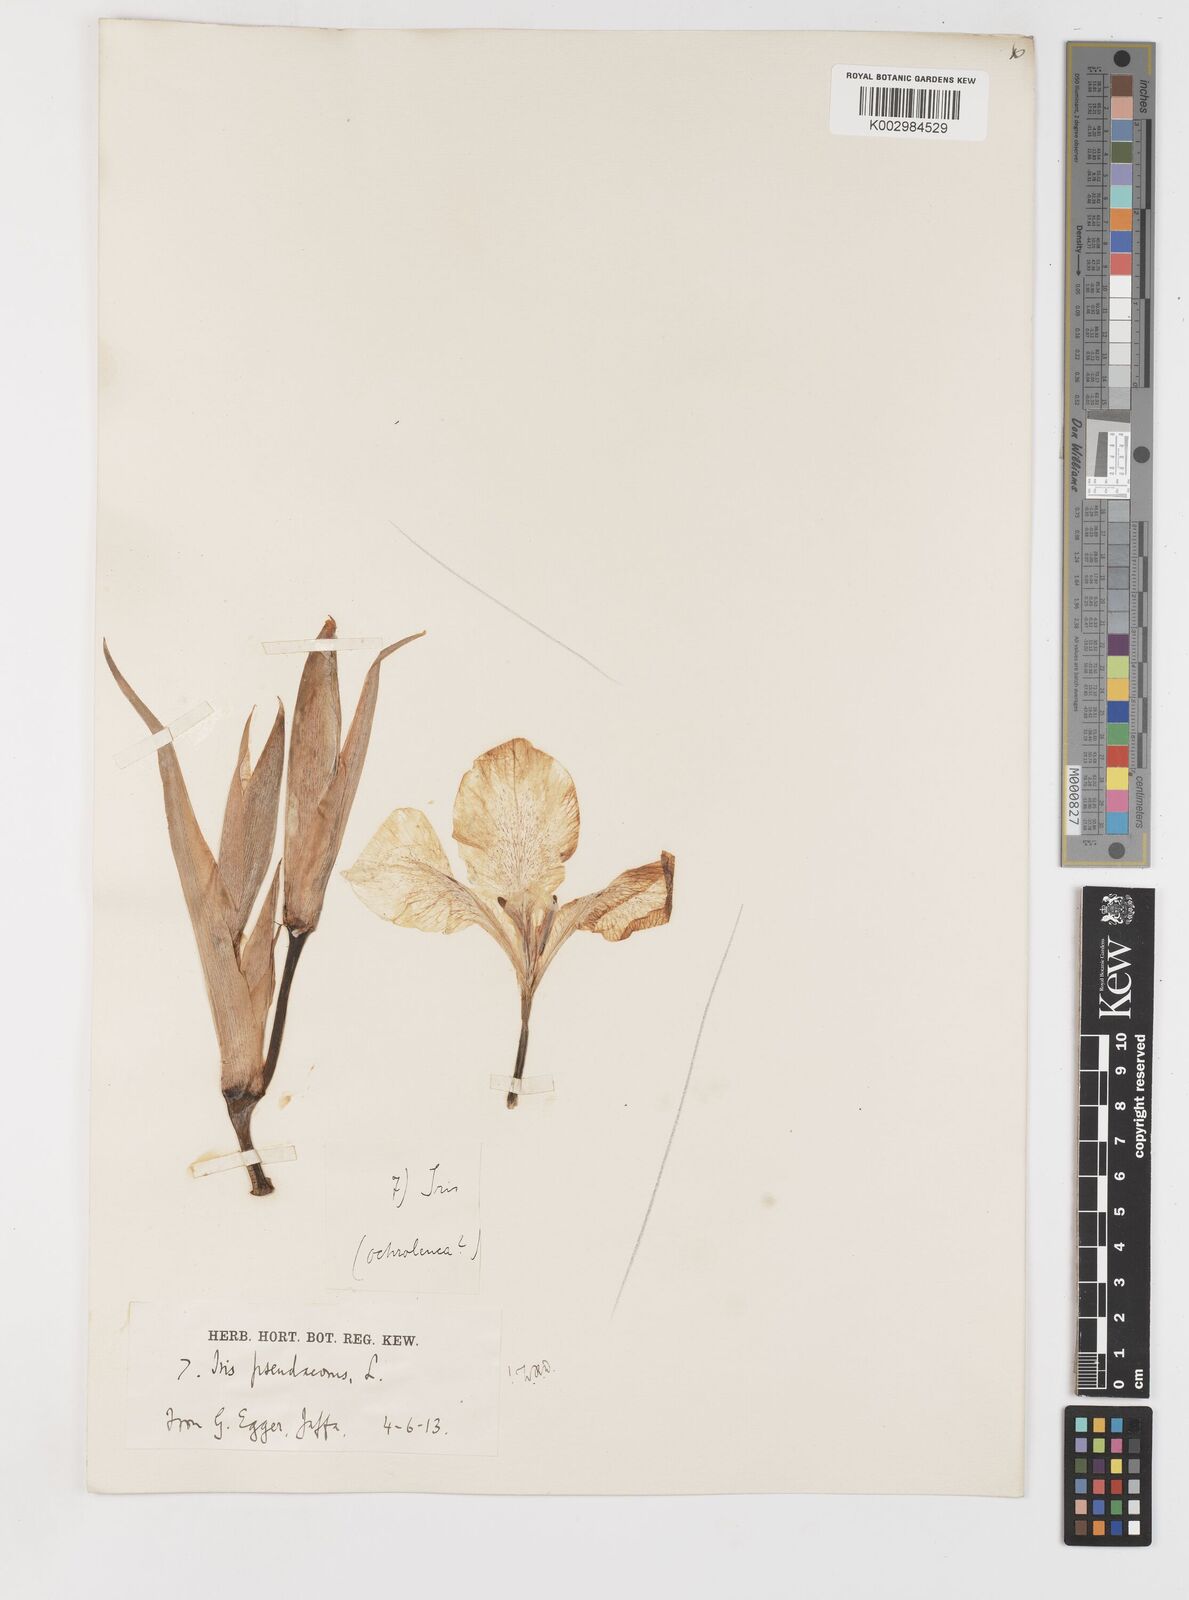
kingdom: Plantae
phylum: Tracheophyta
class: Liliopsida
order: Asparagales
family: Iridaceae
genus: Iris
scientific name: Iris pseudacorus
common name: Yellow flag
